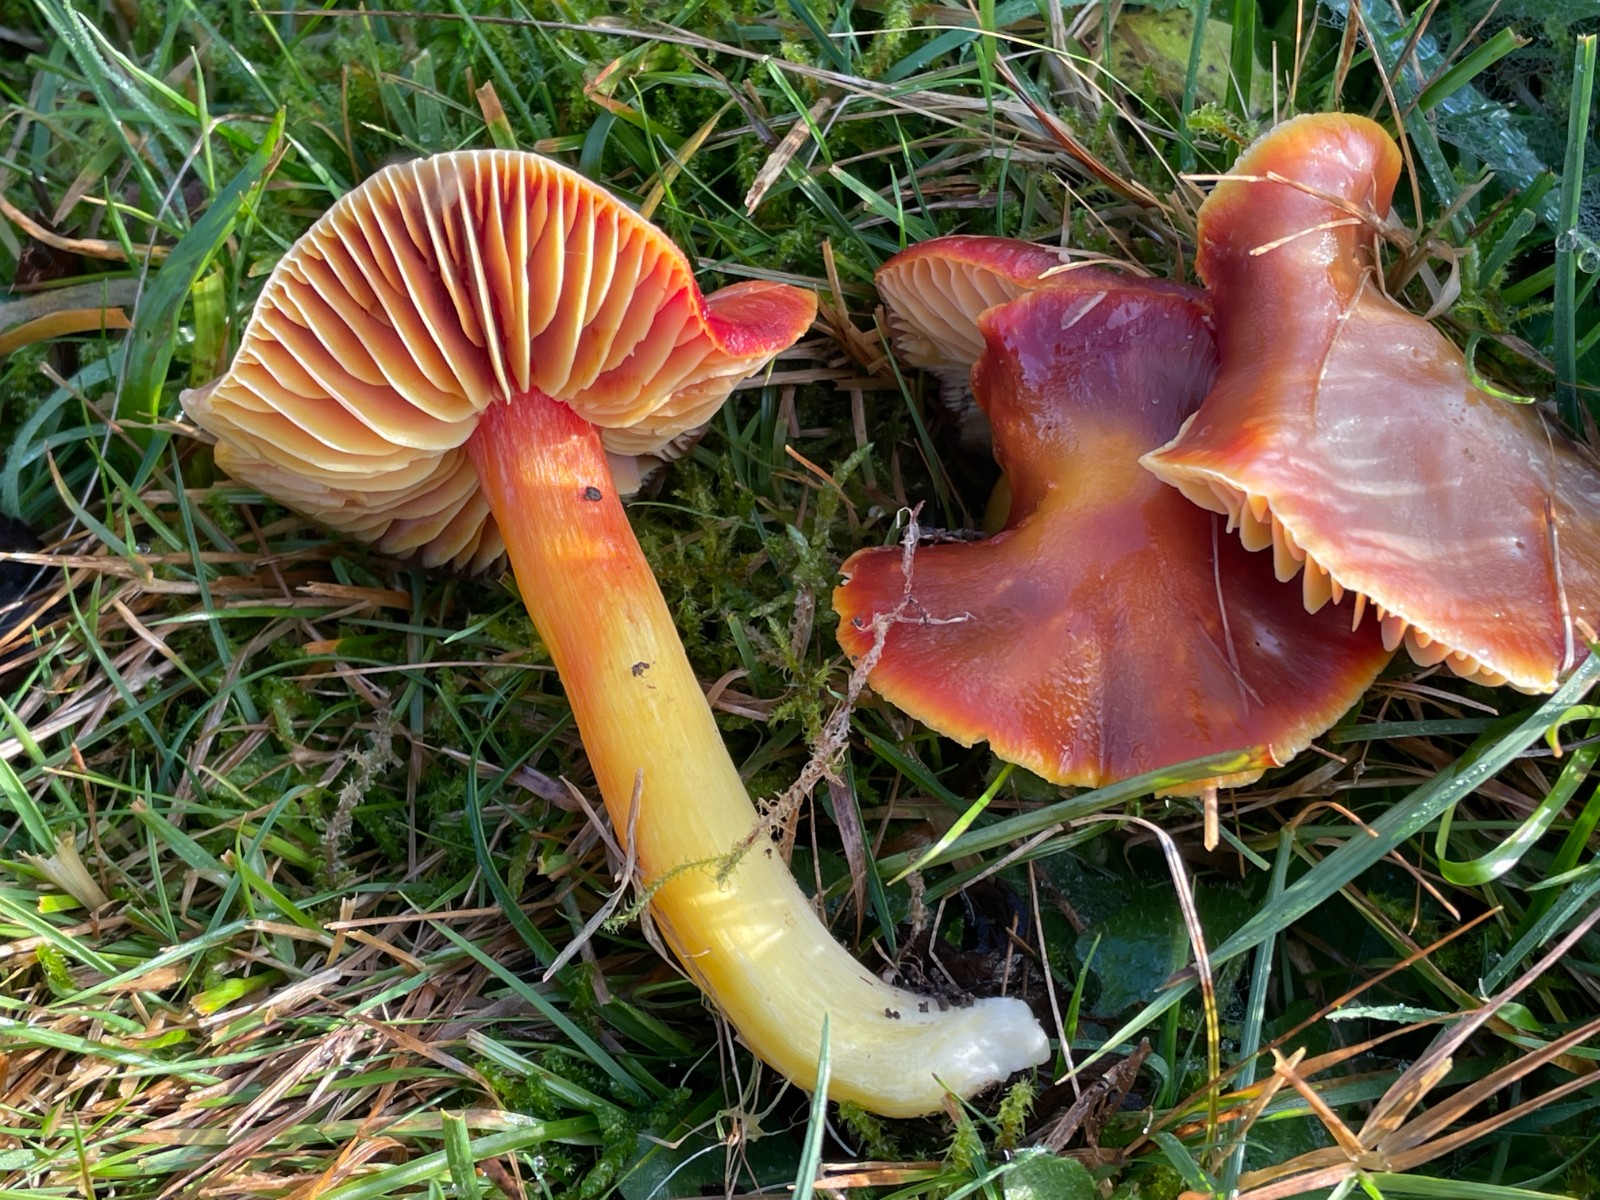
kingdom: Fungi
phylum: Basidiomycota
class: Agaricomycetes
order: Agaricales
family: Hygrophoraceae
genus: Hygrocybe
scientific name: Hygrocybe punicea
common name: skarlagen-vokshat
